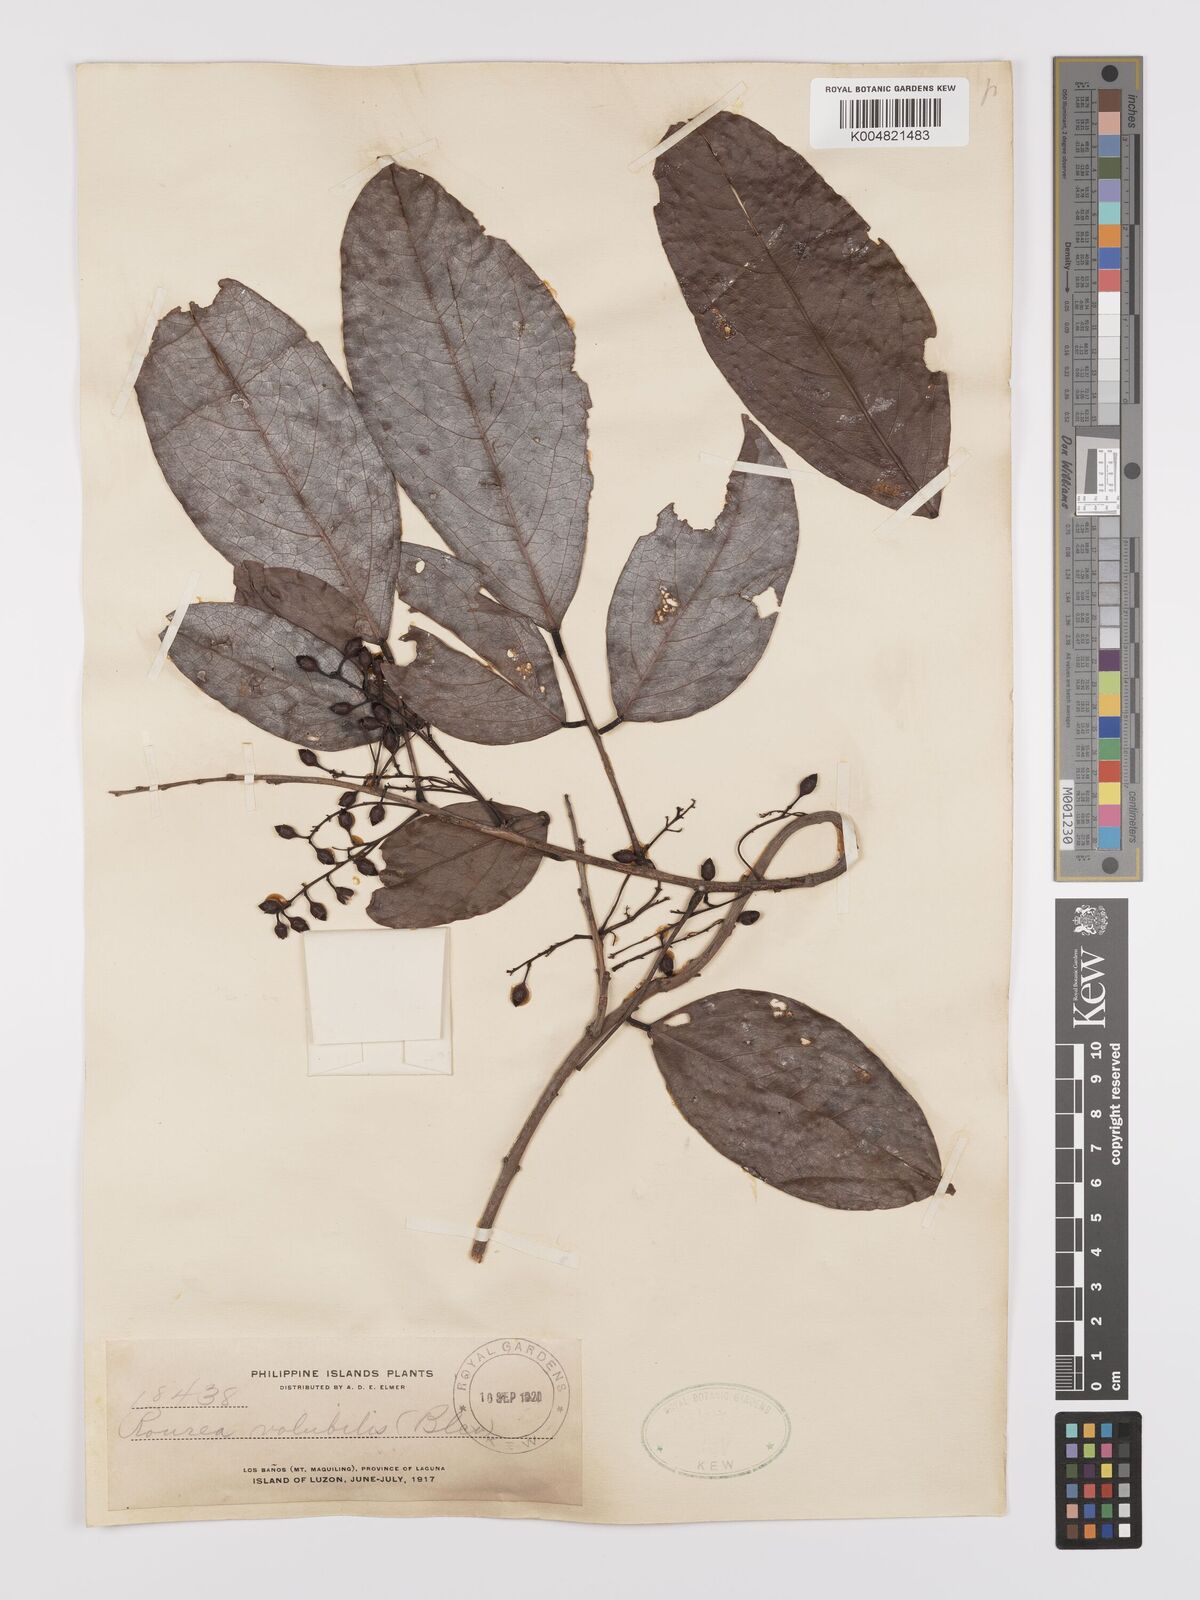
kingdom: Plantae
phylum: Tracheophyta
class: Magnoliopsida
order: Oxalidales
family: Connaraceae
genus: Rourea
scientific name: Rourea minor
